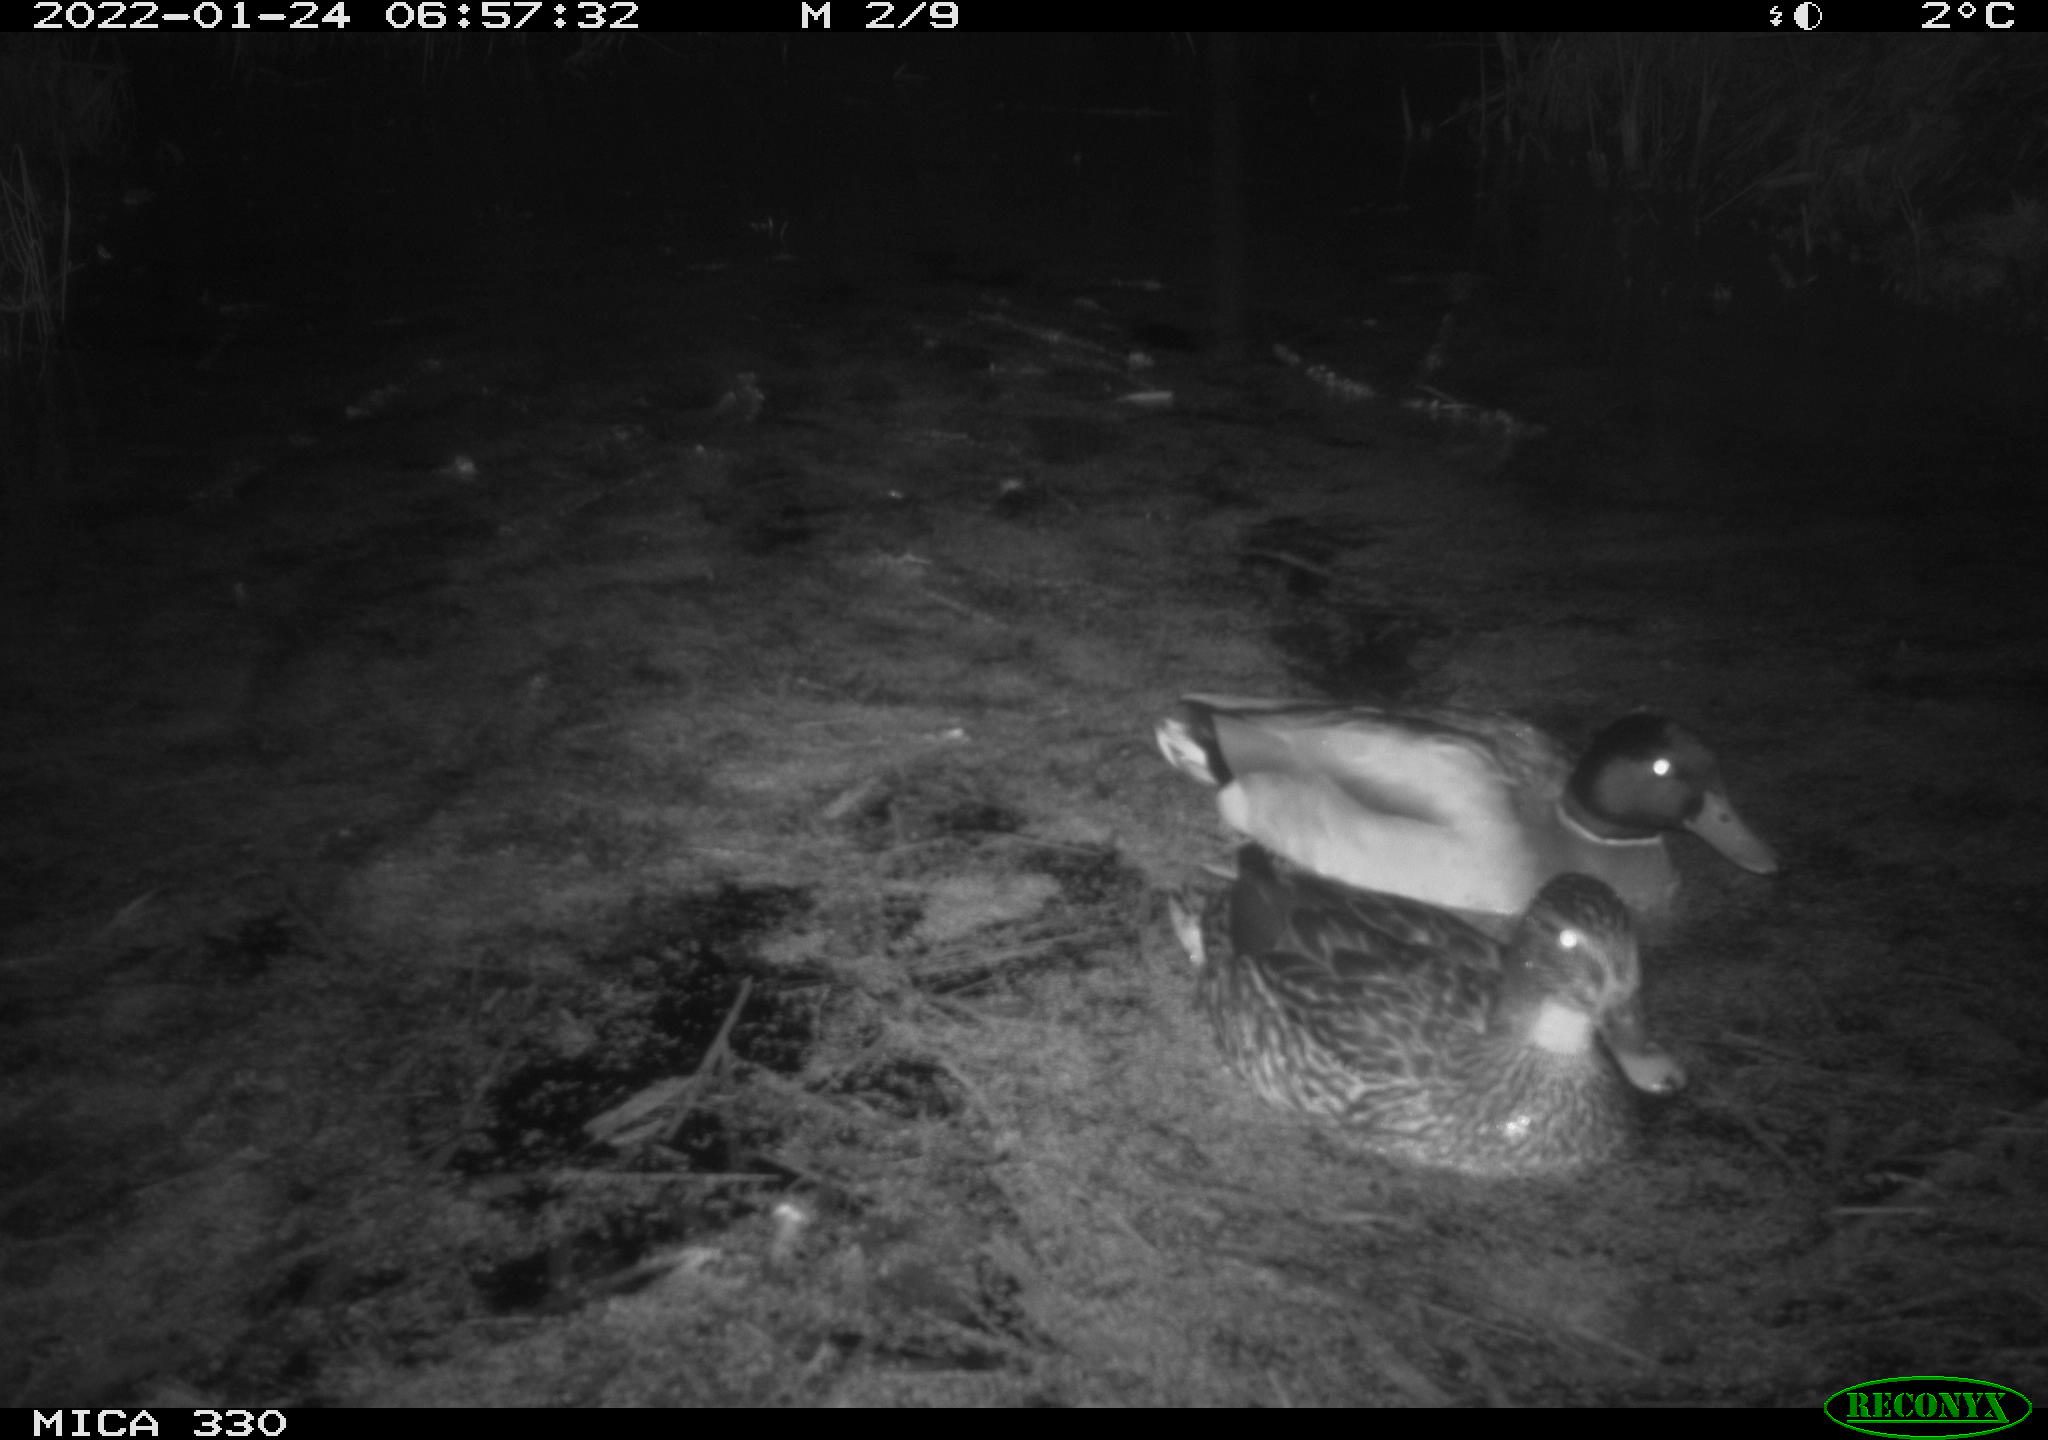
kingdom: Animalia
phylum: Chordata
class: Aves
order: Anseriformes
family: Anatidae
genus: Anas
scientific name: Anas platyrhynchos
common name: Mallard
